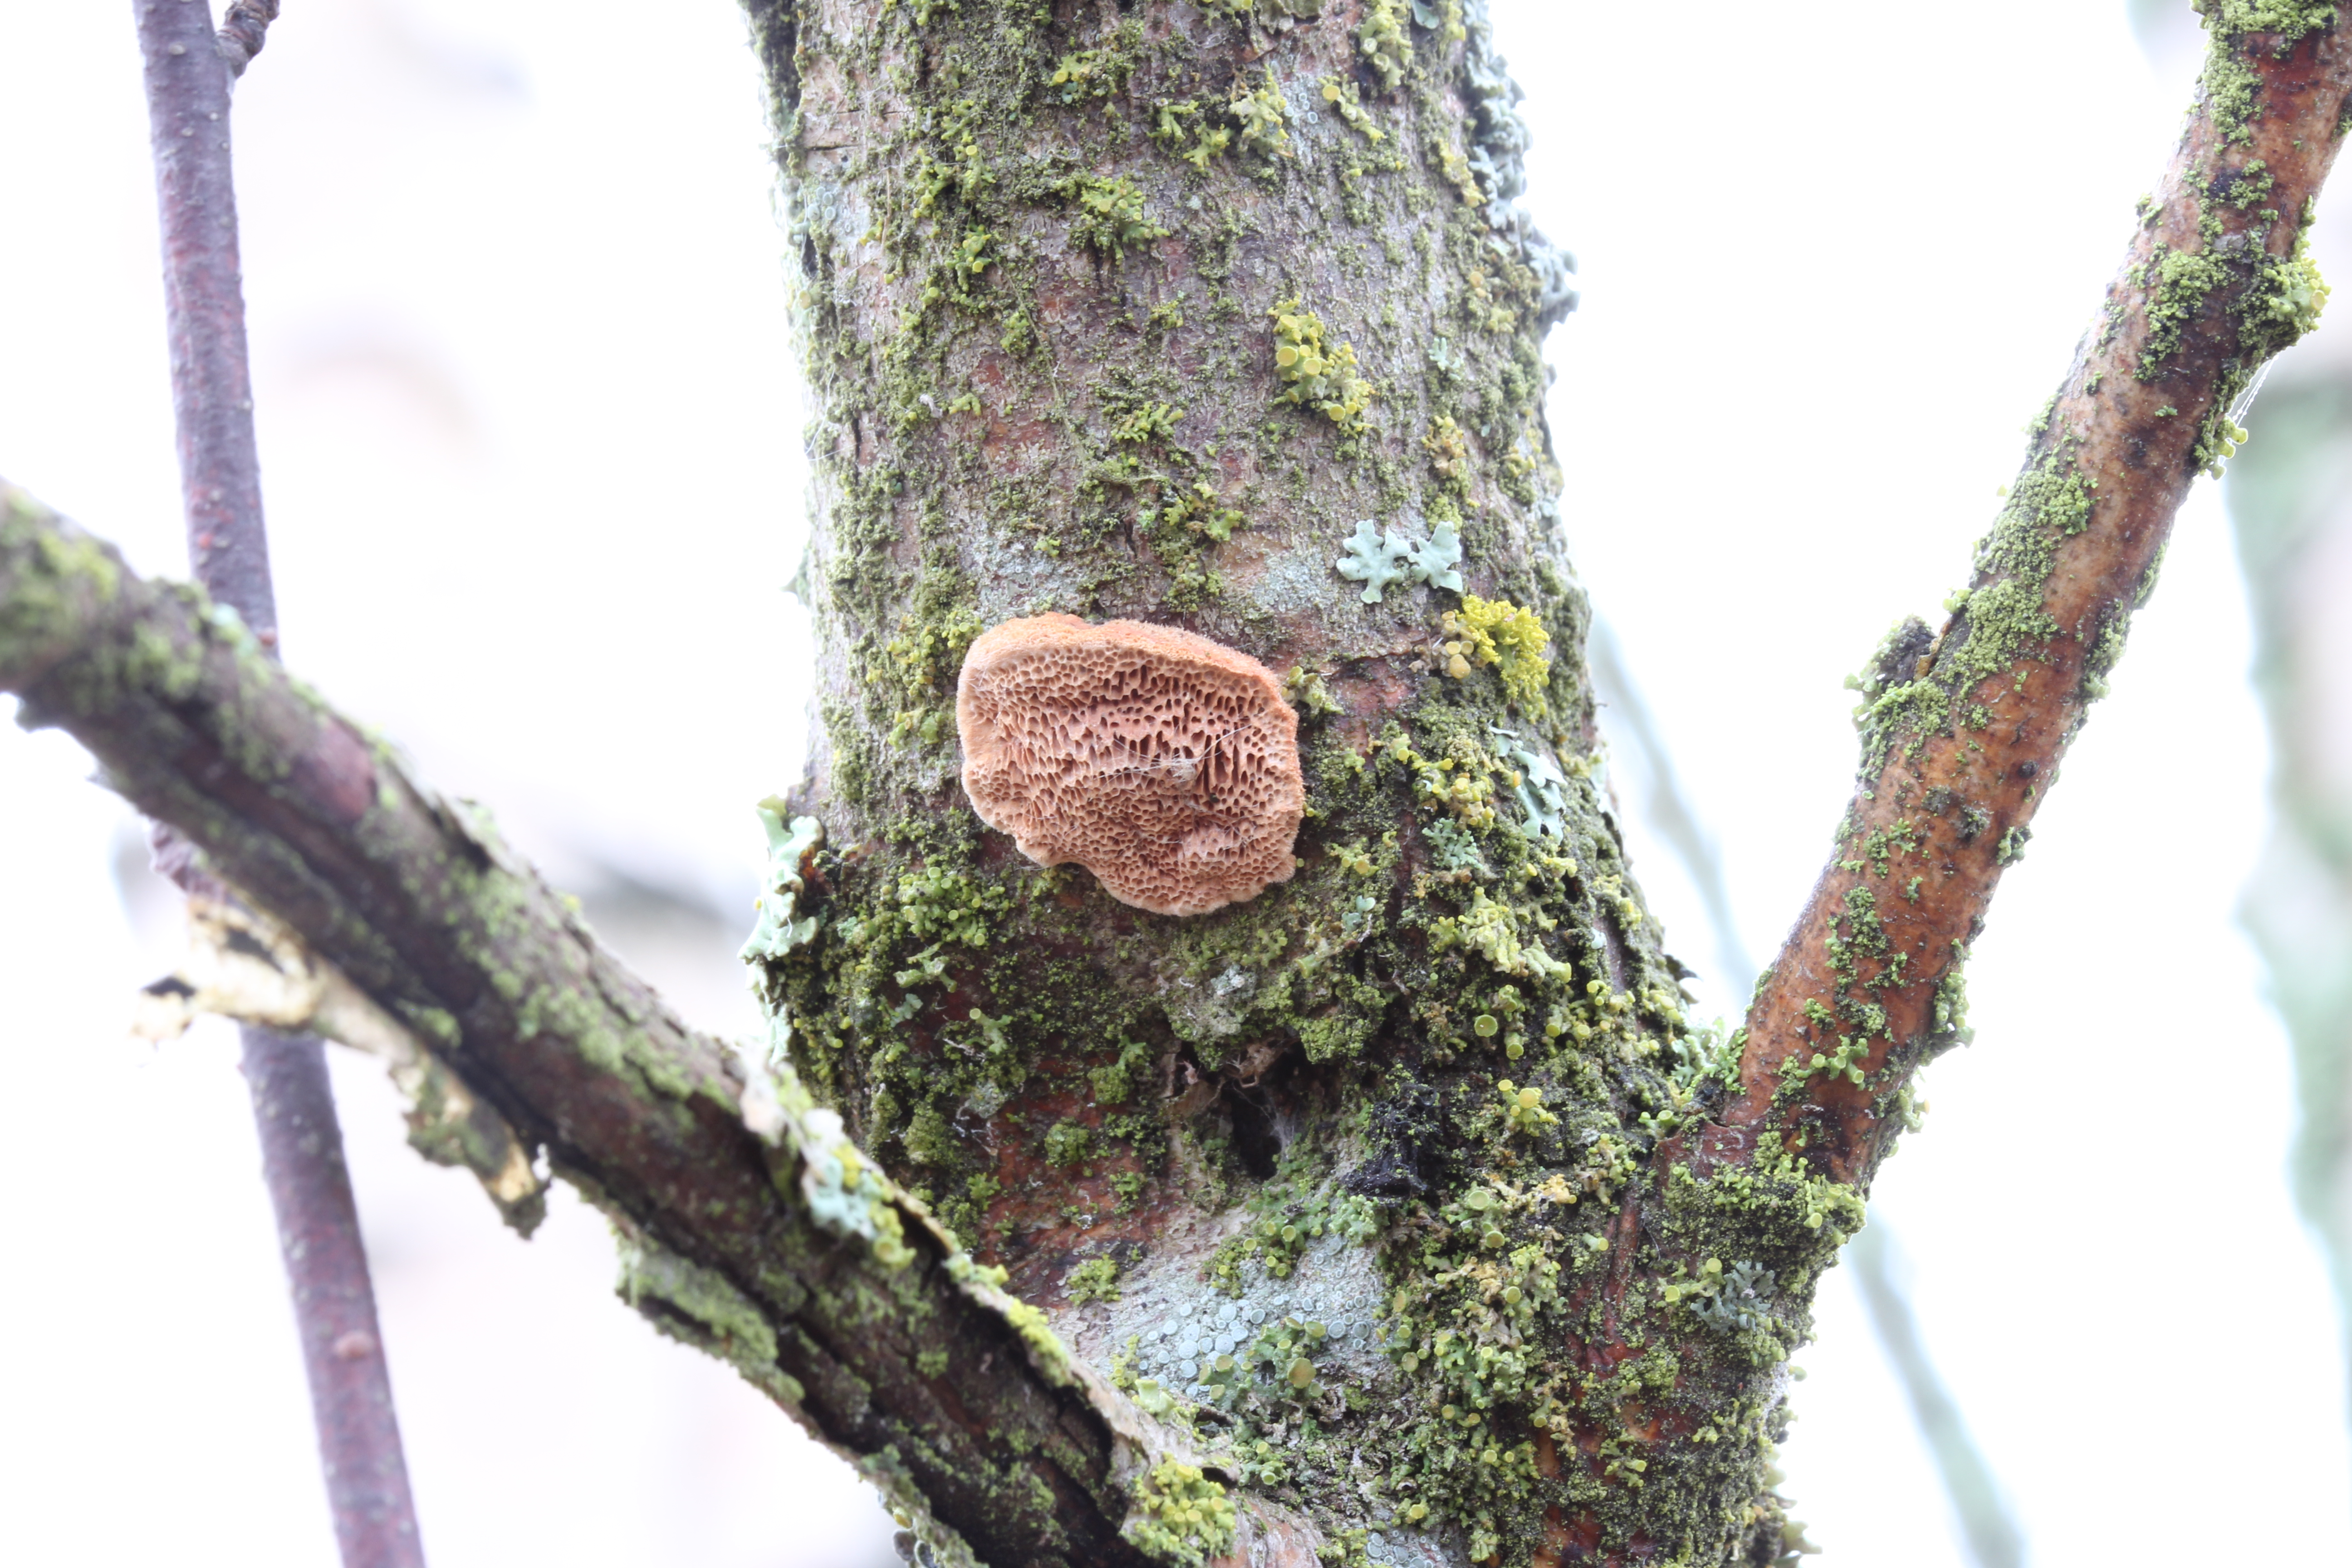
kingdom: Fungi
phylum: Basidiomycota
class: Agaricomycetes
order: Polyporales
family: Phanerochaetaceae
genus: Hapalopilus
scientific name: Hapalopilus rutilans
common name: Tender nesting polypore
